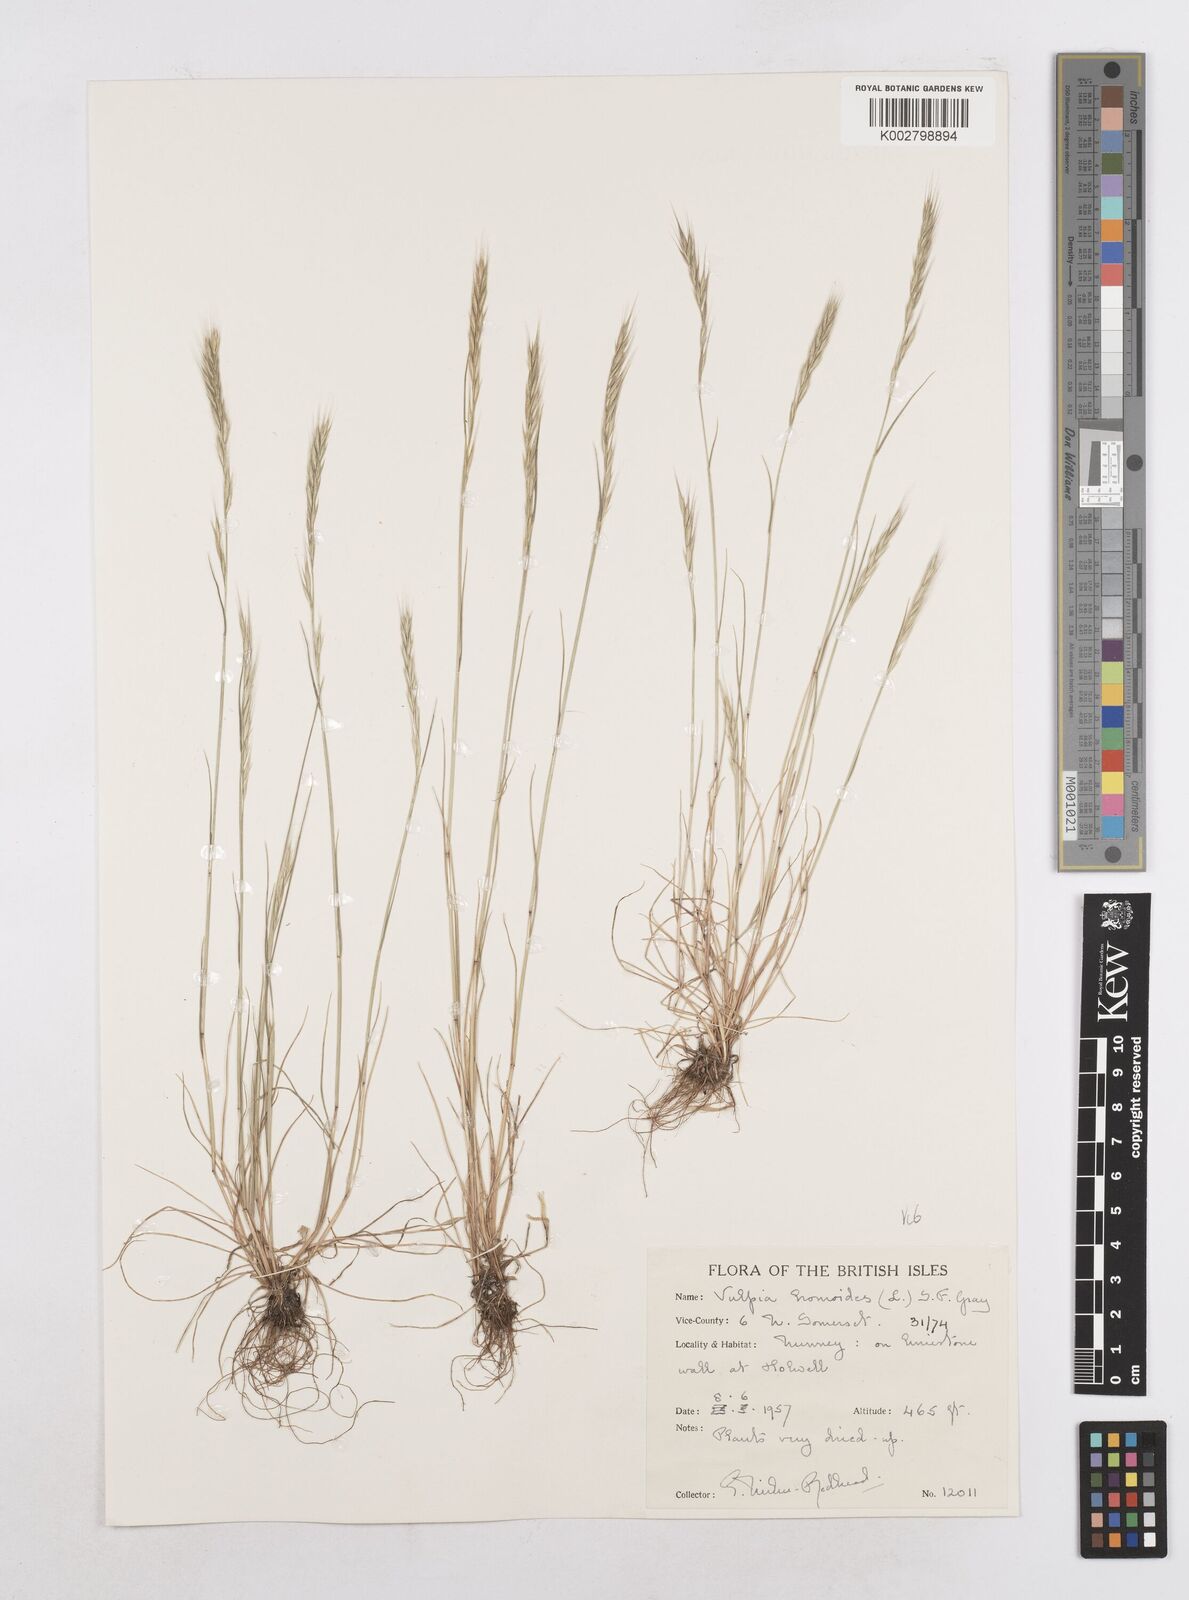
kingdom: Plantae
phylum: Tracheophyta
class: Liliopsida
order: Poales
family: Poaceae
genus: Festuca
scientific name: Festuca bromoides
